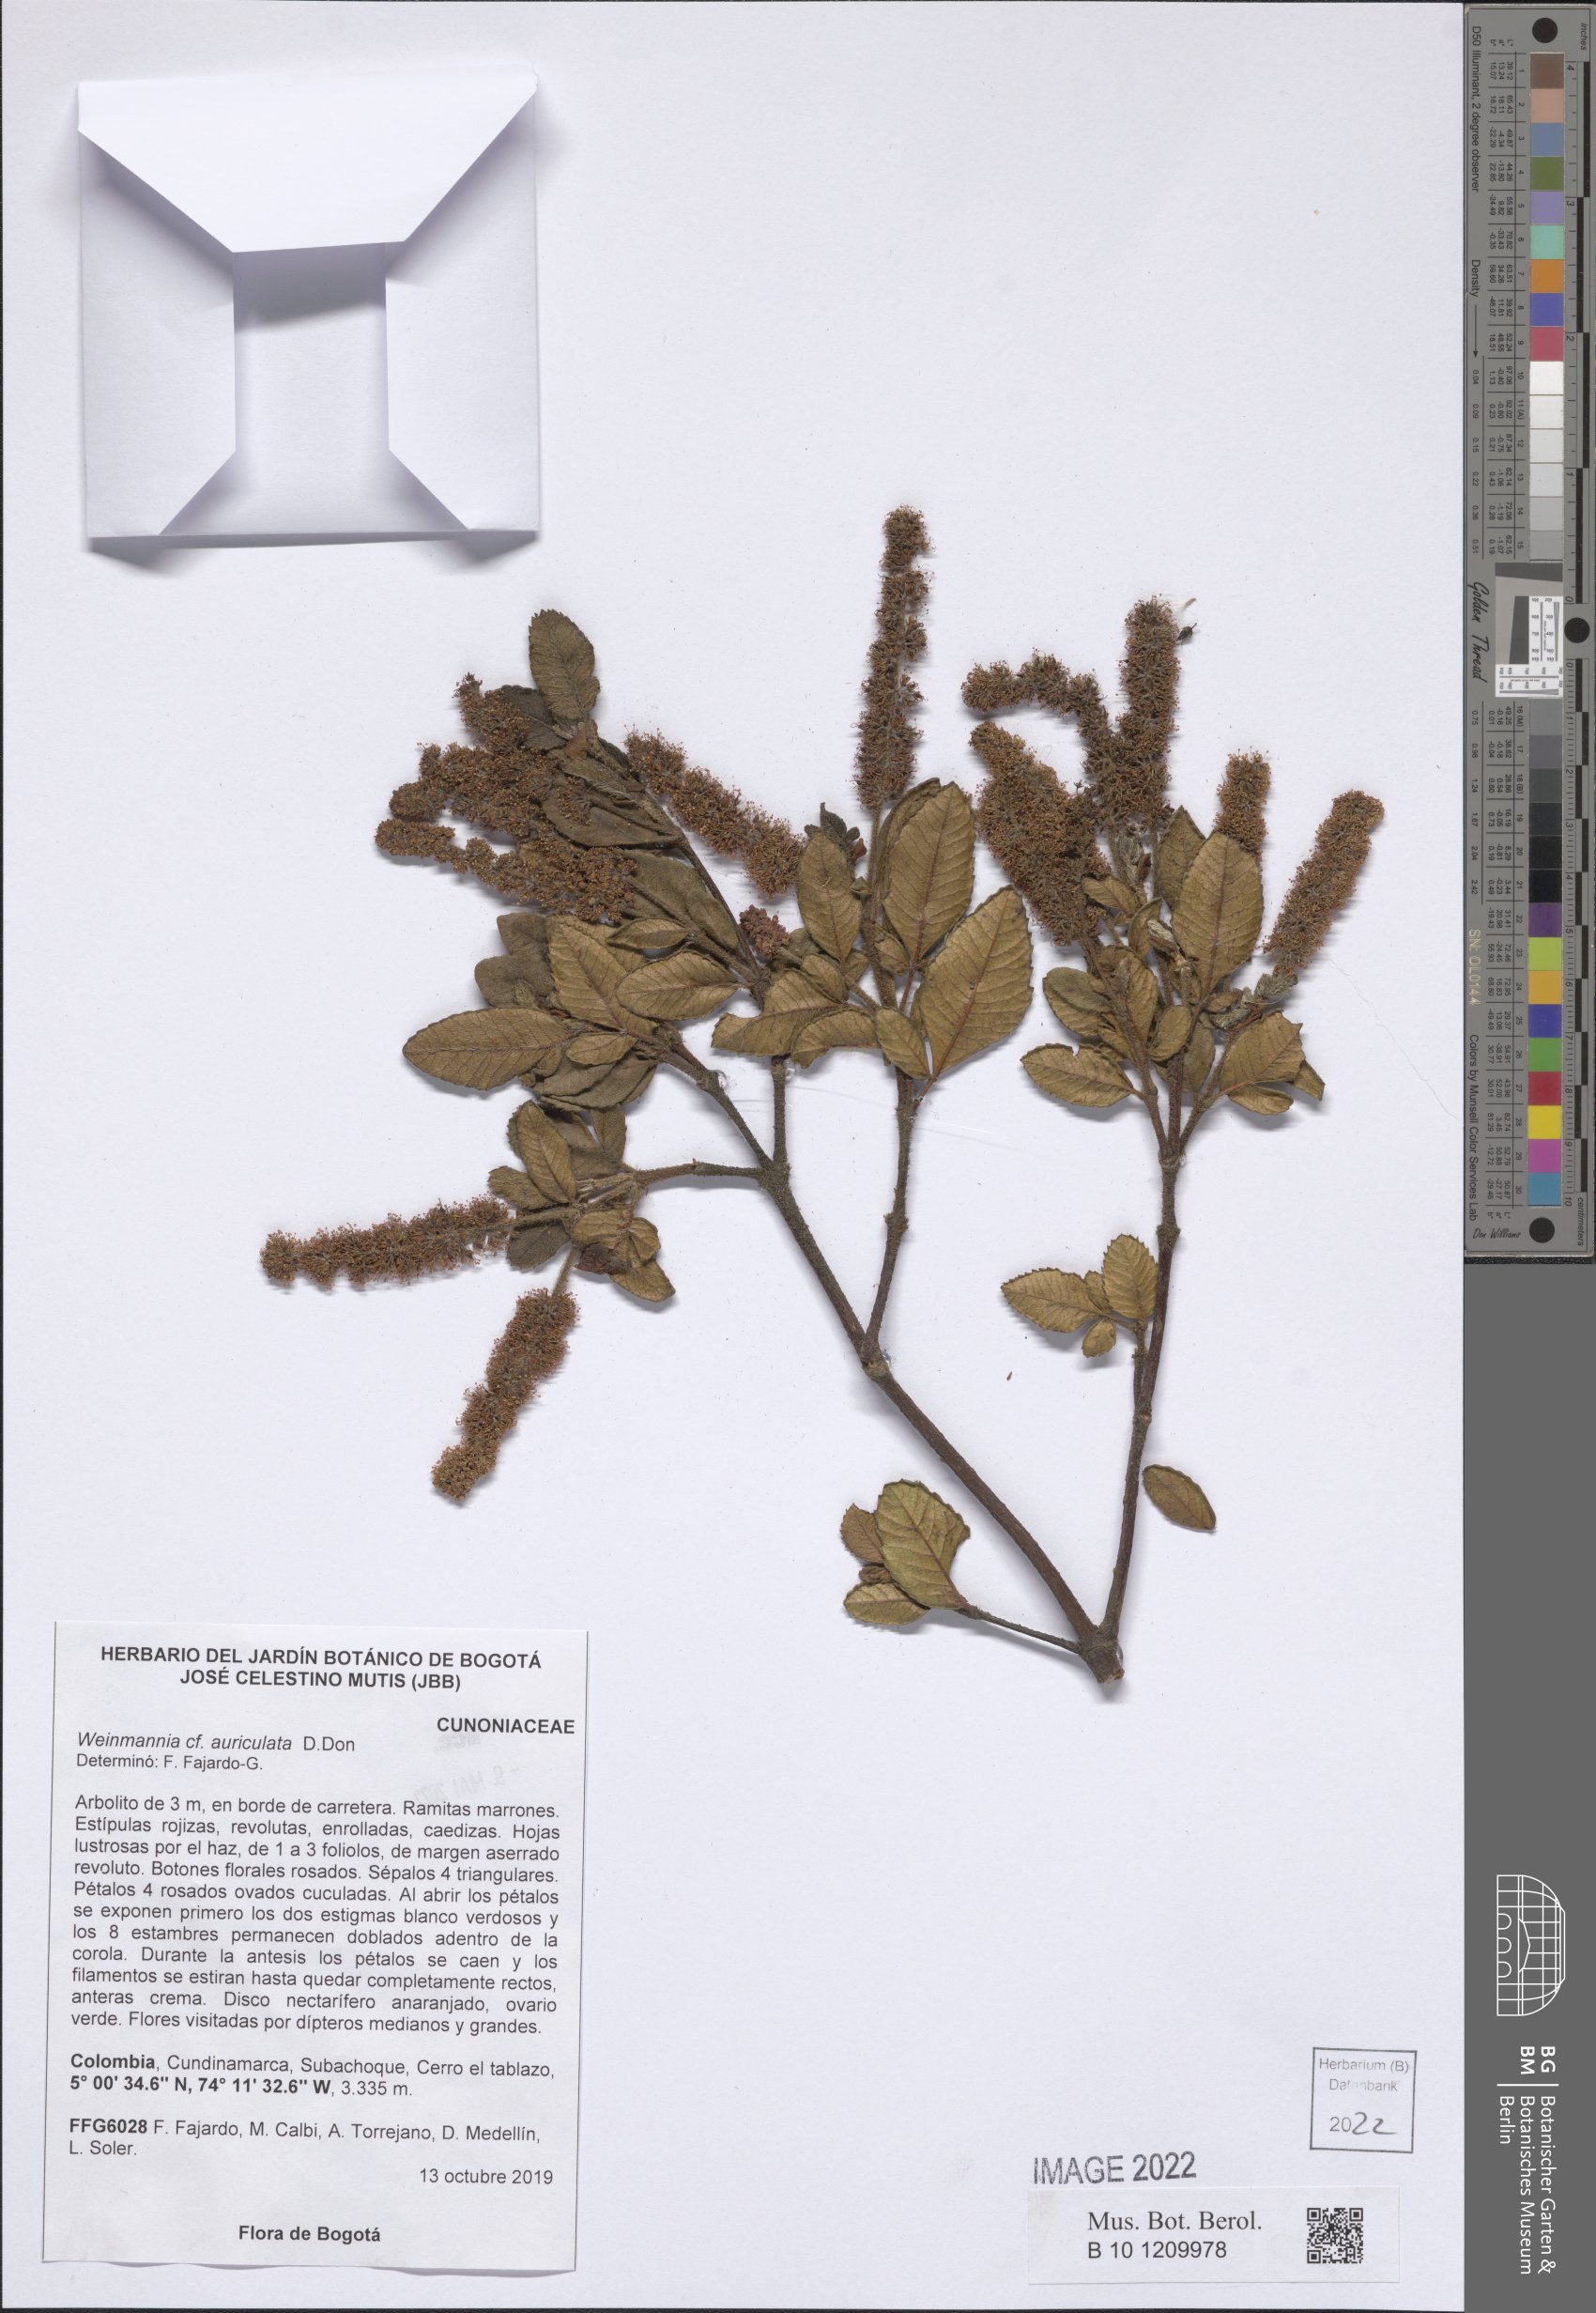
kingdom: Plantae
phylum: Tracheophyta
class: Magnoliopsida
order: Oxalidales
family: Cunoniaceae
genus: Weinmannia
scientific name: Weinmannia auriculata
